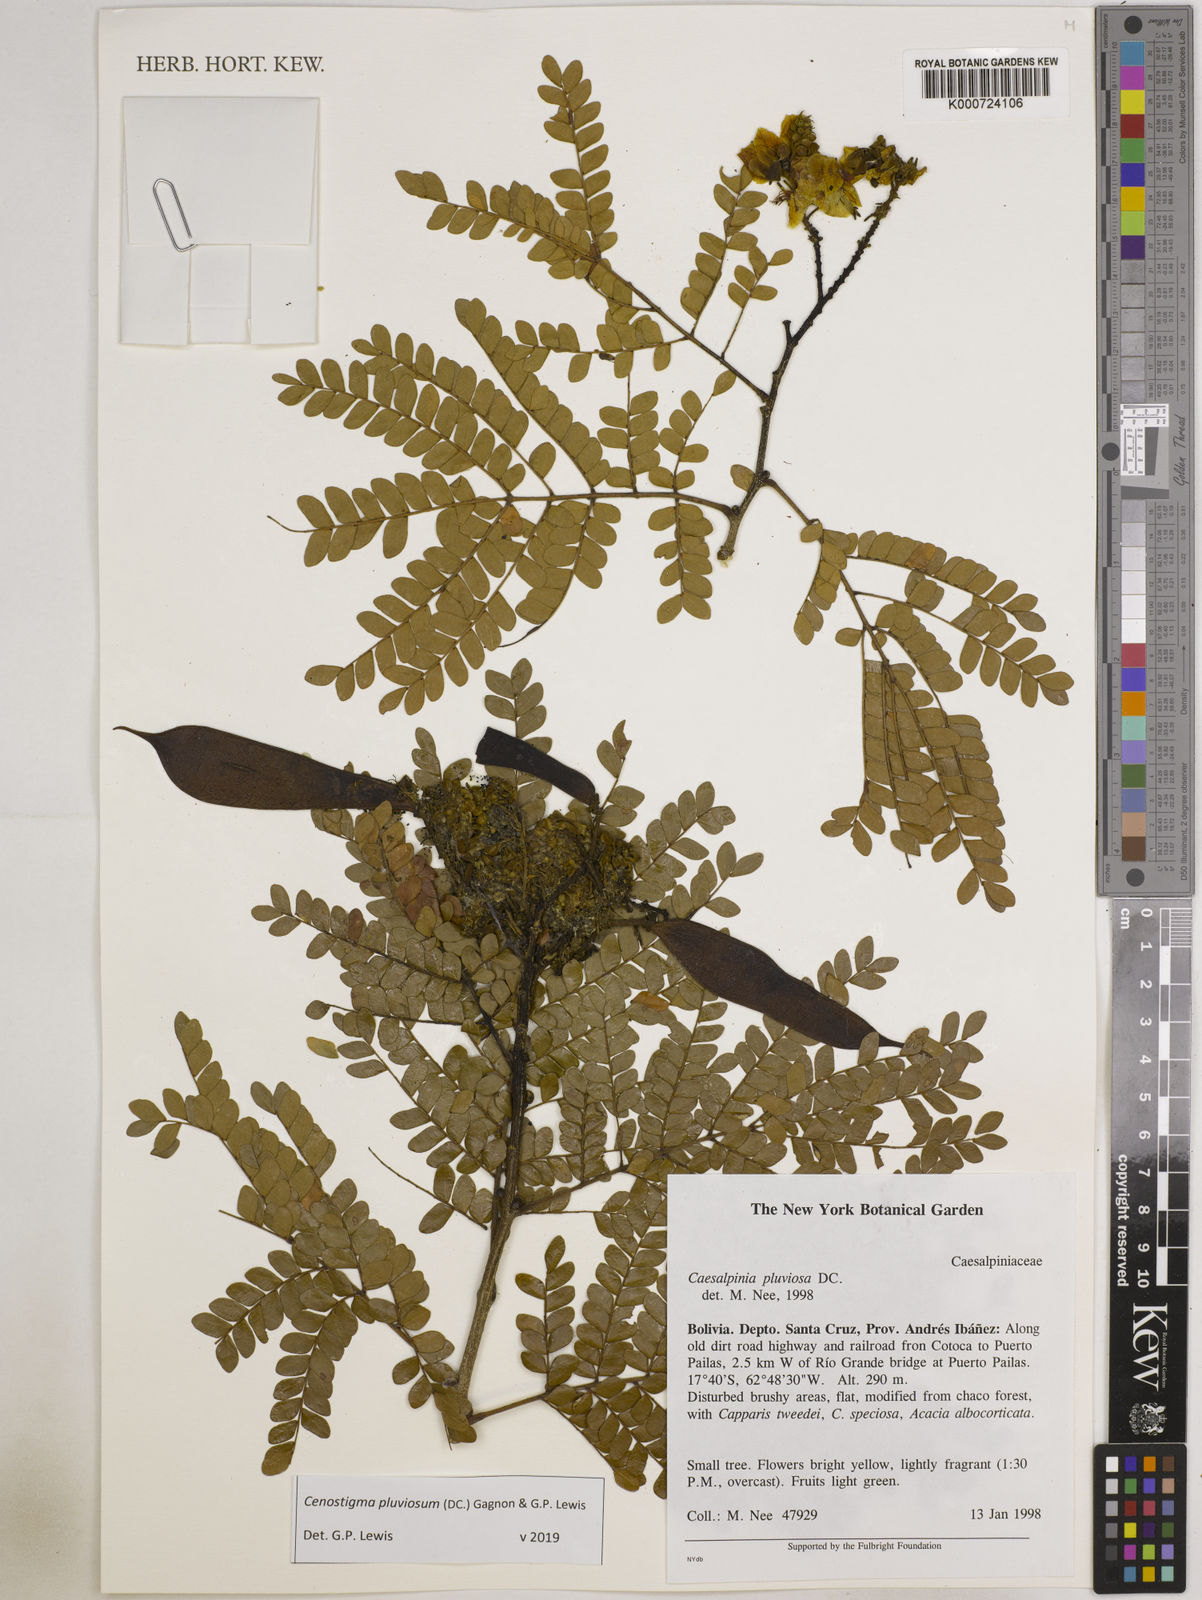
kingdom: Plantae
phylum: Tracheophyta
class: Magnoliopsida
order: Fabales
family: Fabaceae
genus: Cenostigma
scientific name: Cenostigma pluviosum
